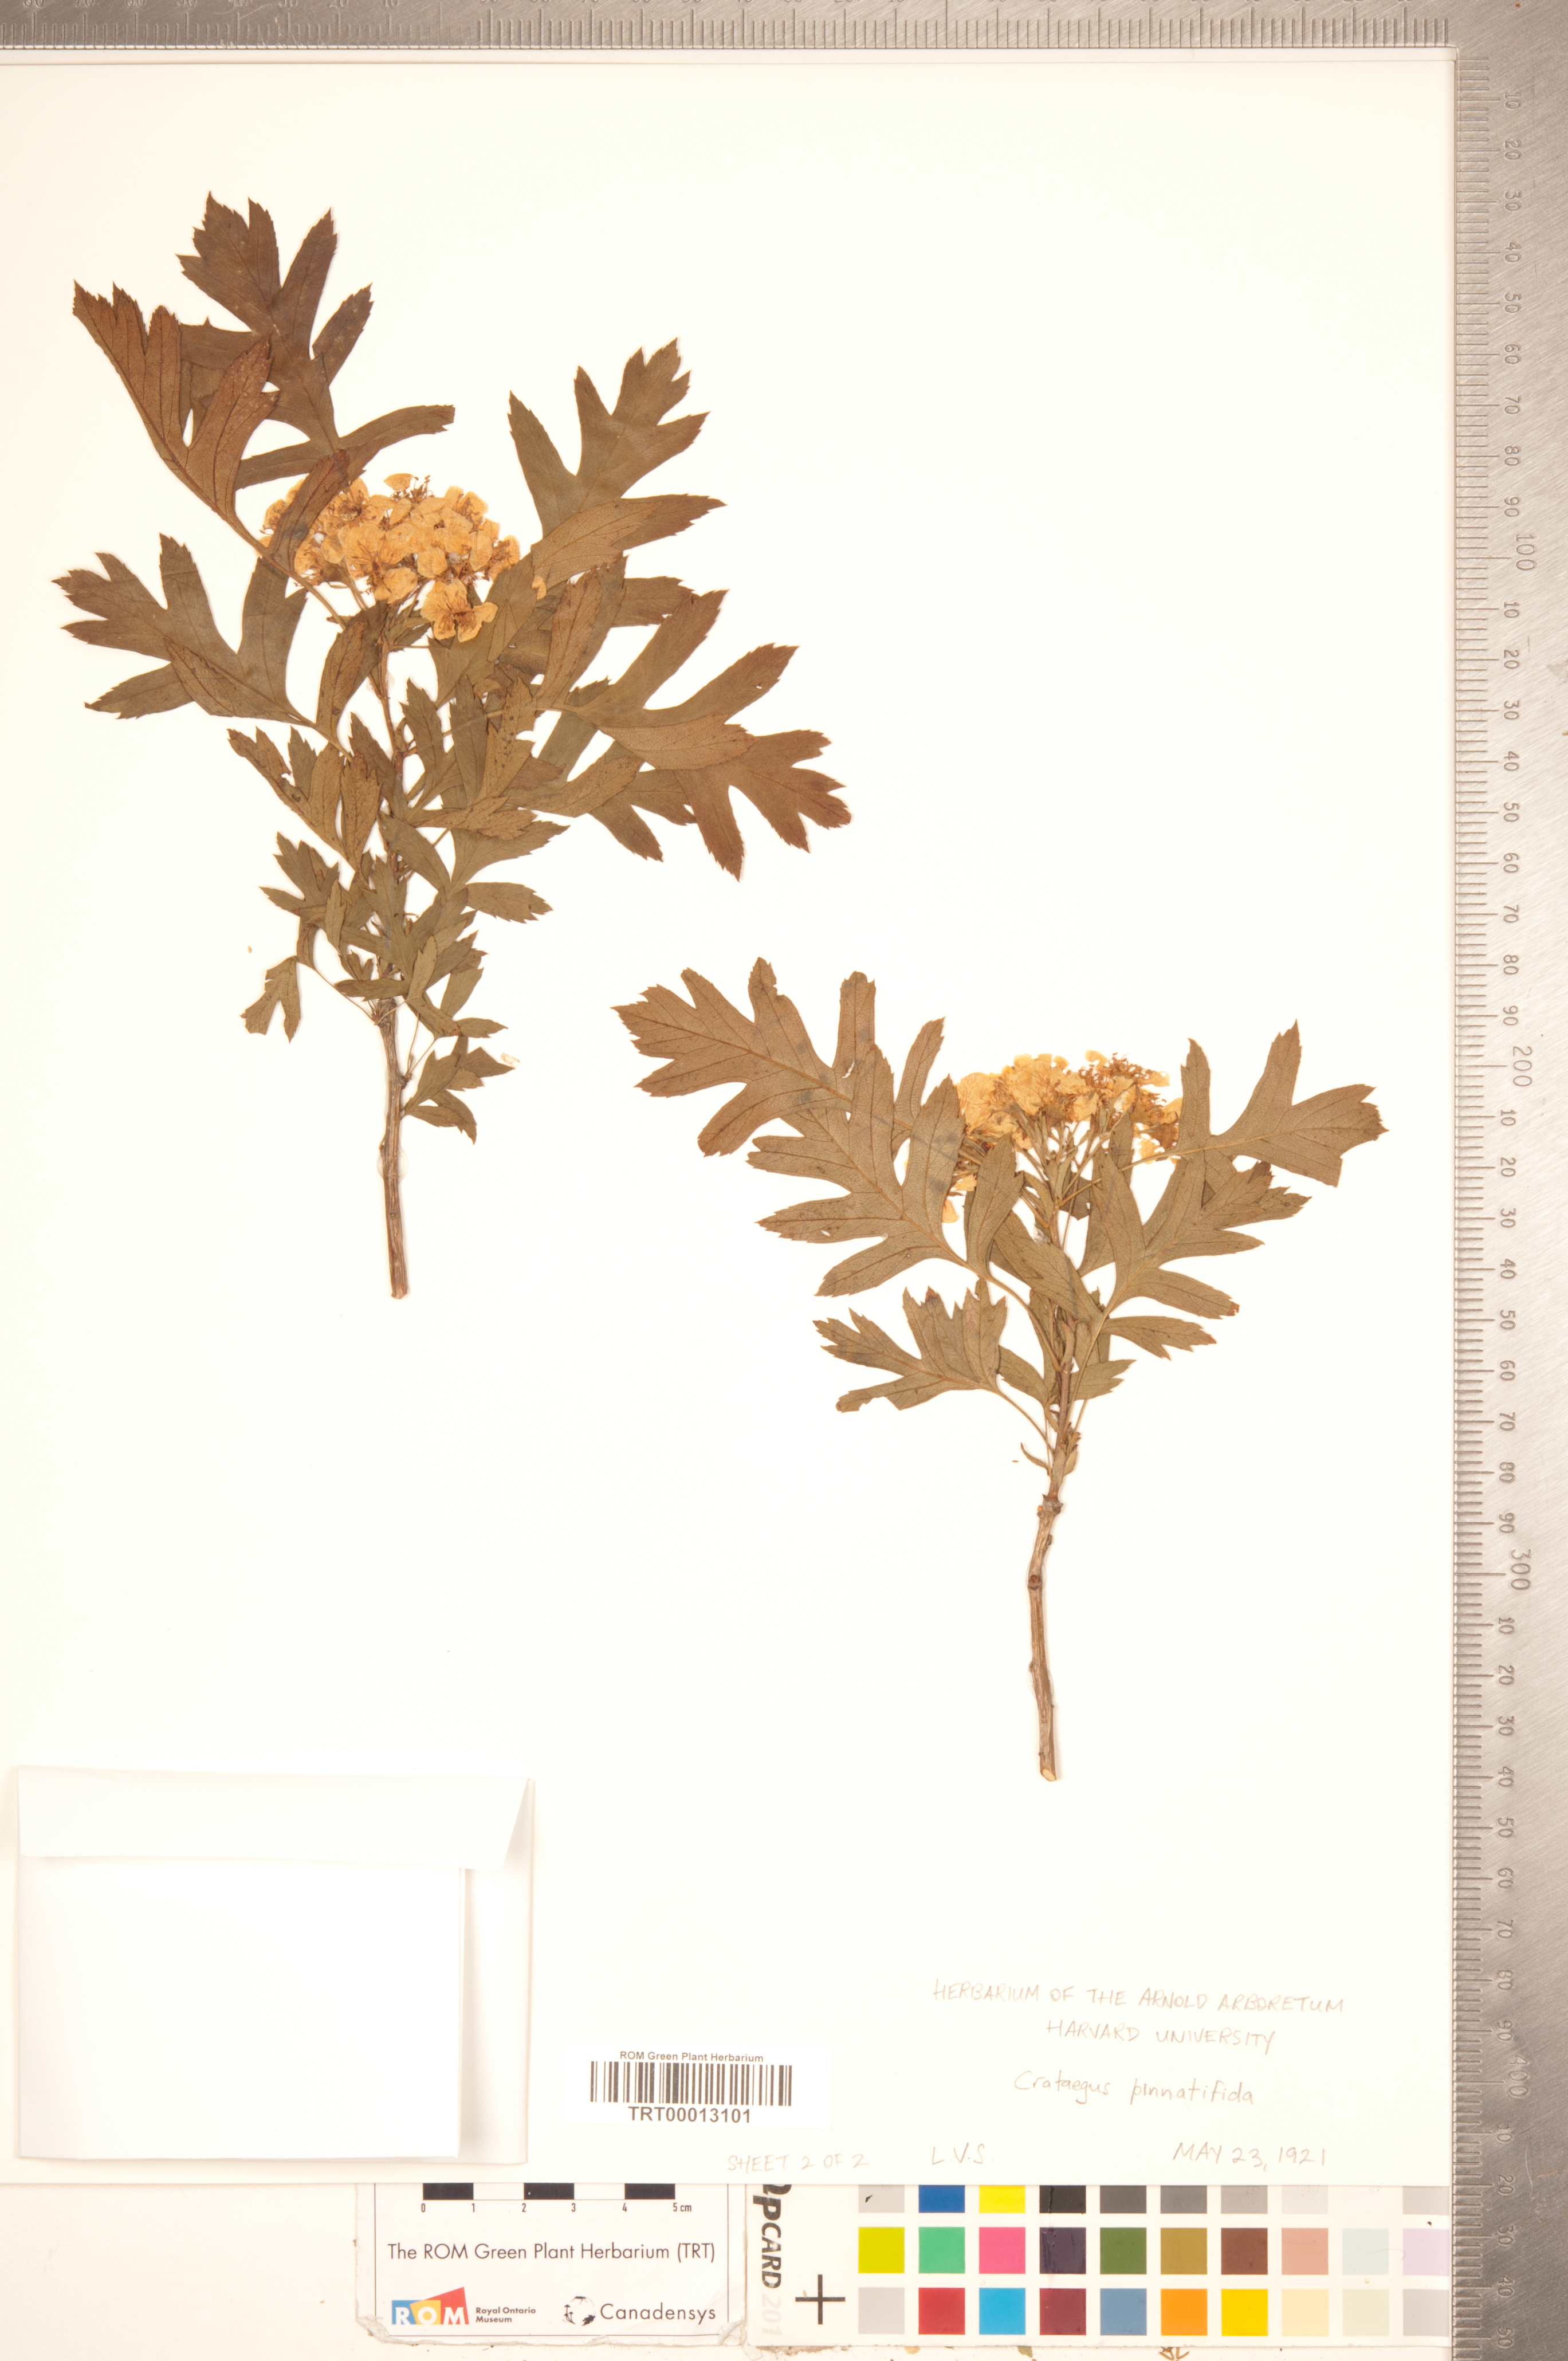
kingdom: Plantae
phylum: Tracheophyta
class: Magnoliopsida
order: Rosales
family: Rosaceae
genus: Crataegus
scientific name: Crataegus pinnatifida
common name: Chinese haw
